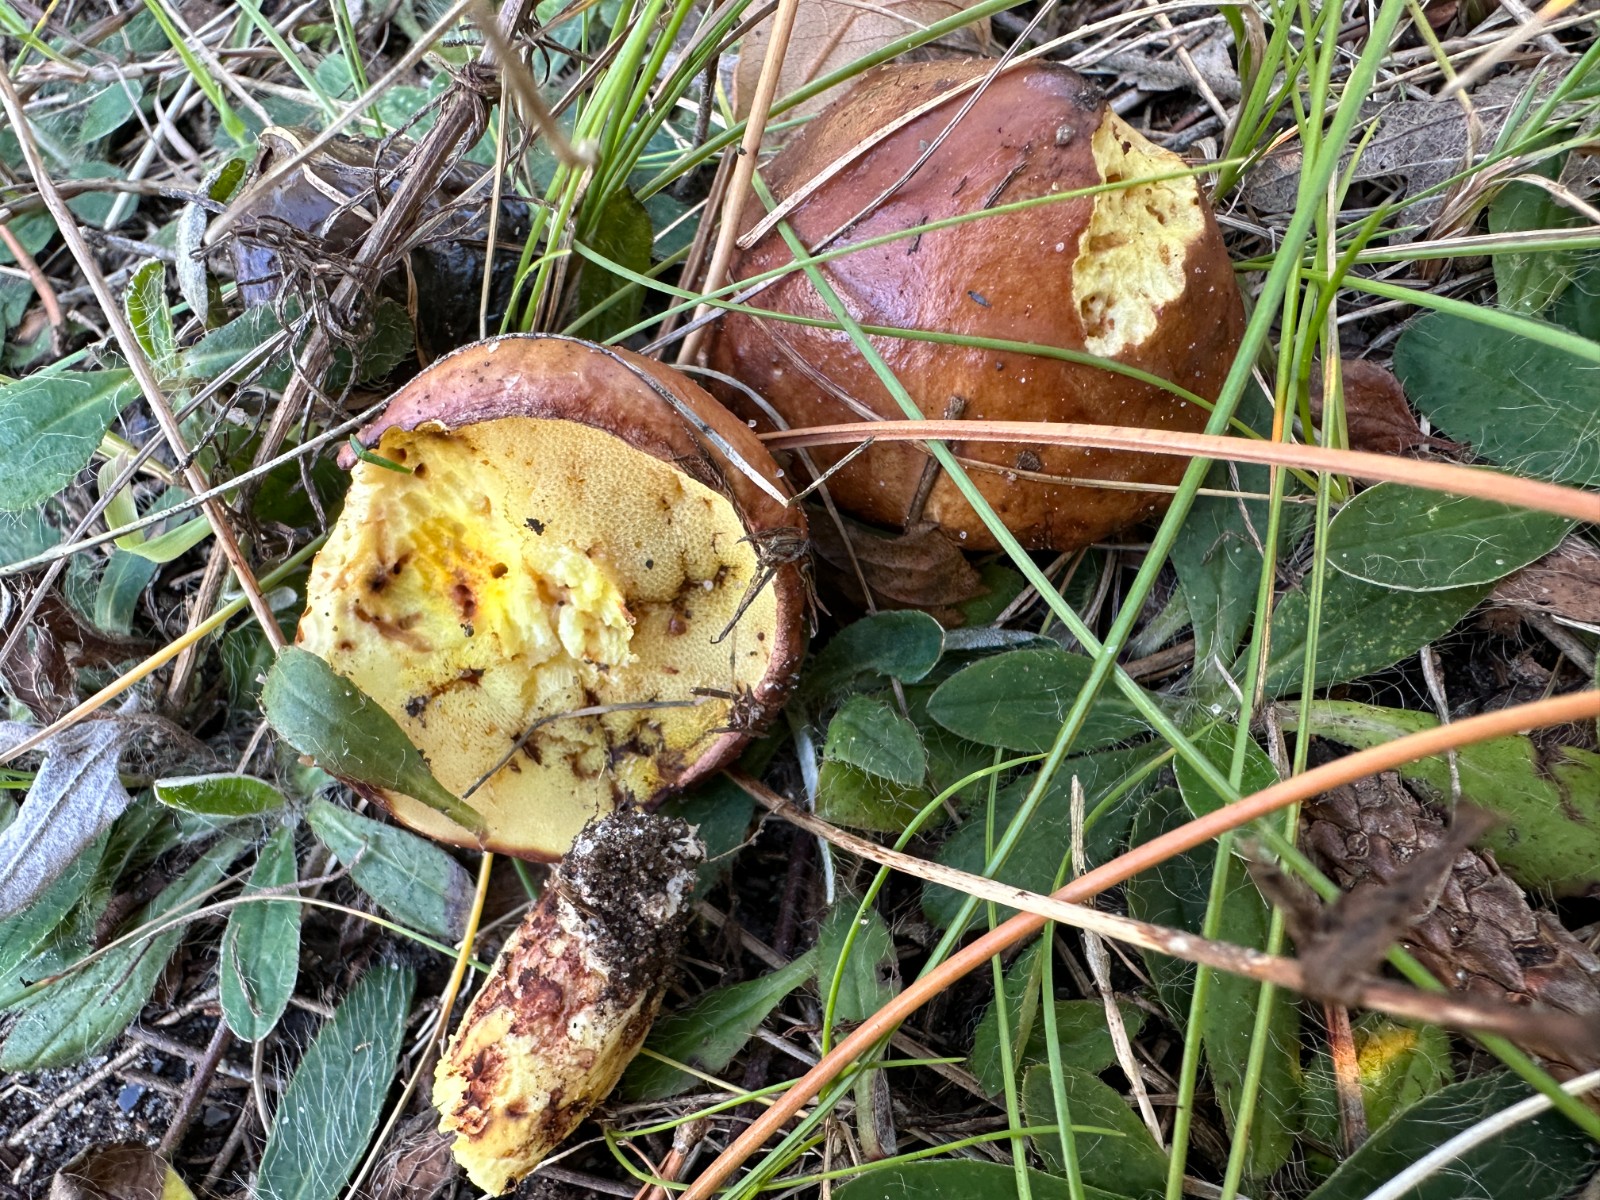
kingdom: Fungi
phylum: Basidiomycota
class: Agaricomycetes
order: Boletales
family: Suillaceae
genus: Suillus
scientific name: Suillus luteus
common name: brungul slimrørhat
